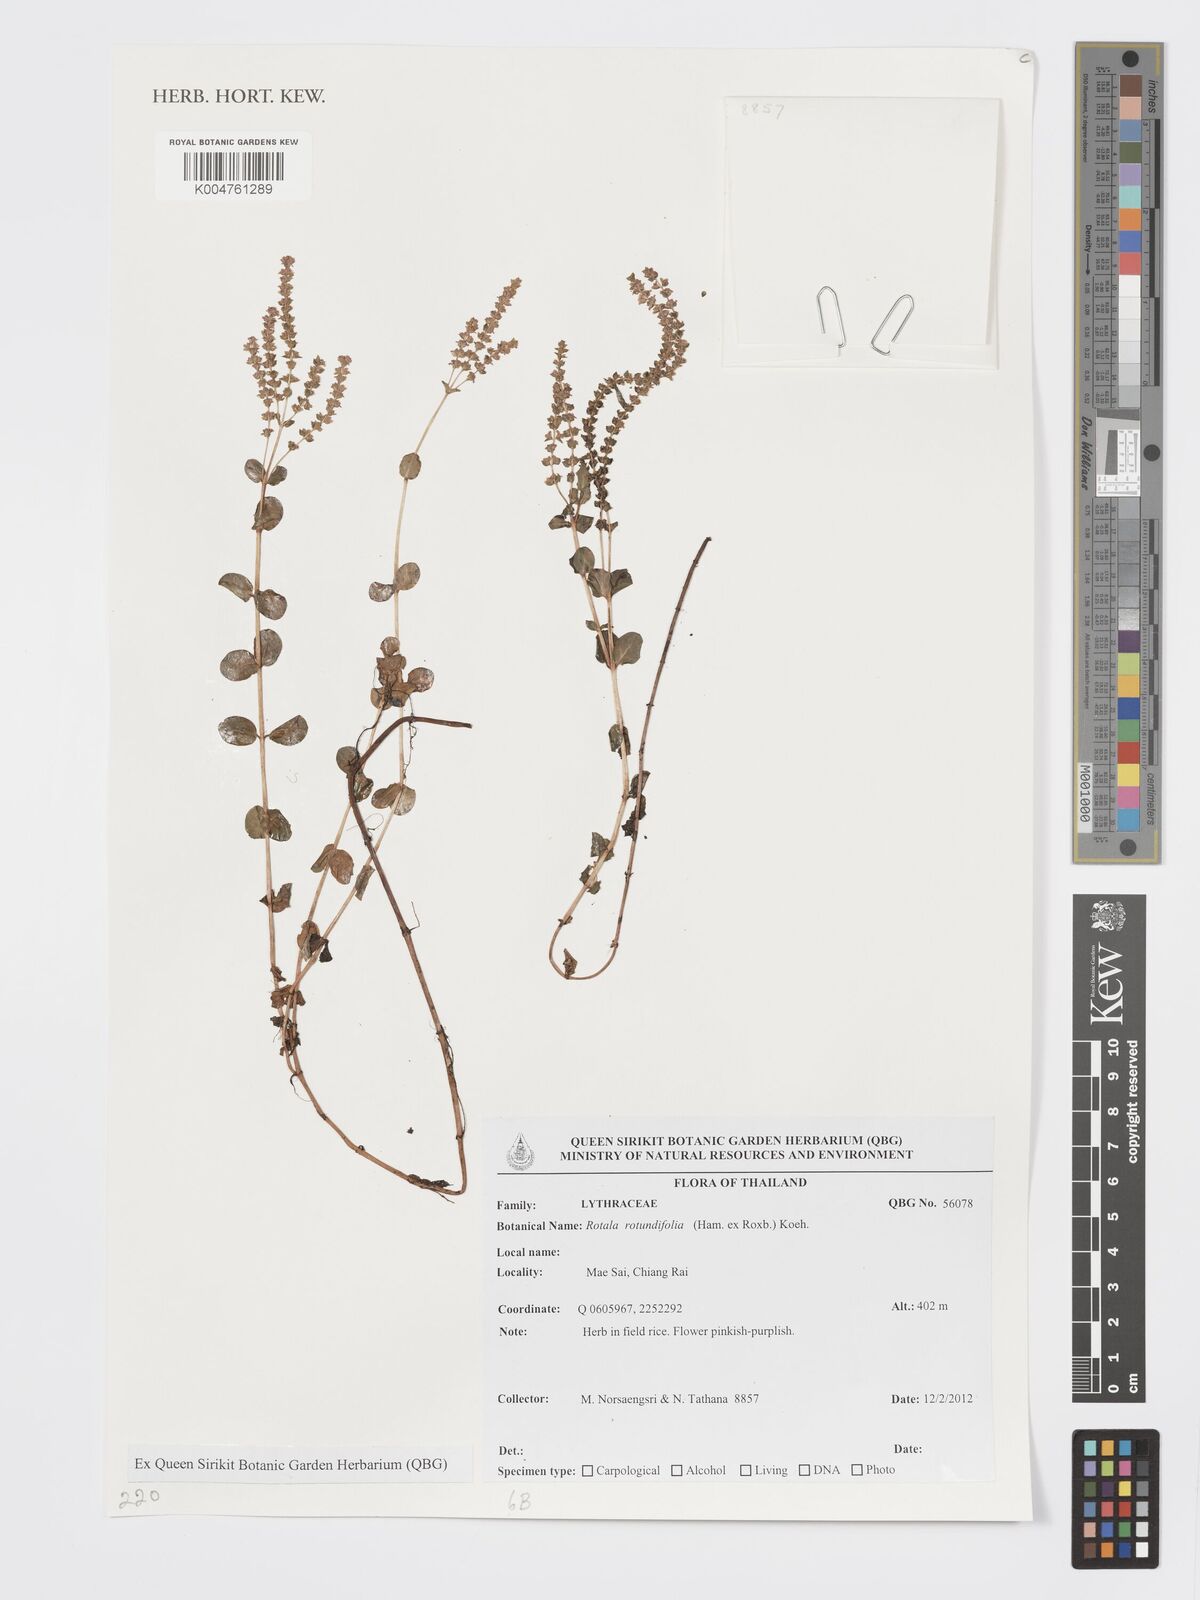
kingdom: Plantae
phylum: Tracheophyta
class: Magnoliopsida
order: Myrtales
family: Lythraceae
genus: Rotala
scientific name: Rotala rotundifolia
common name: Roundleaf toothcup
